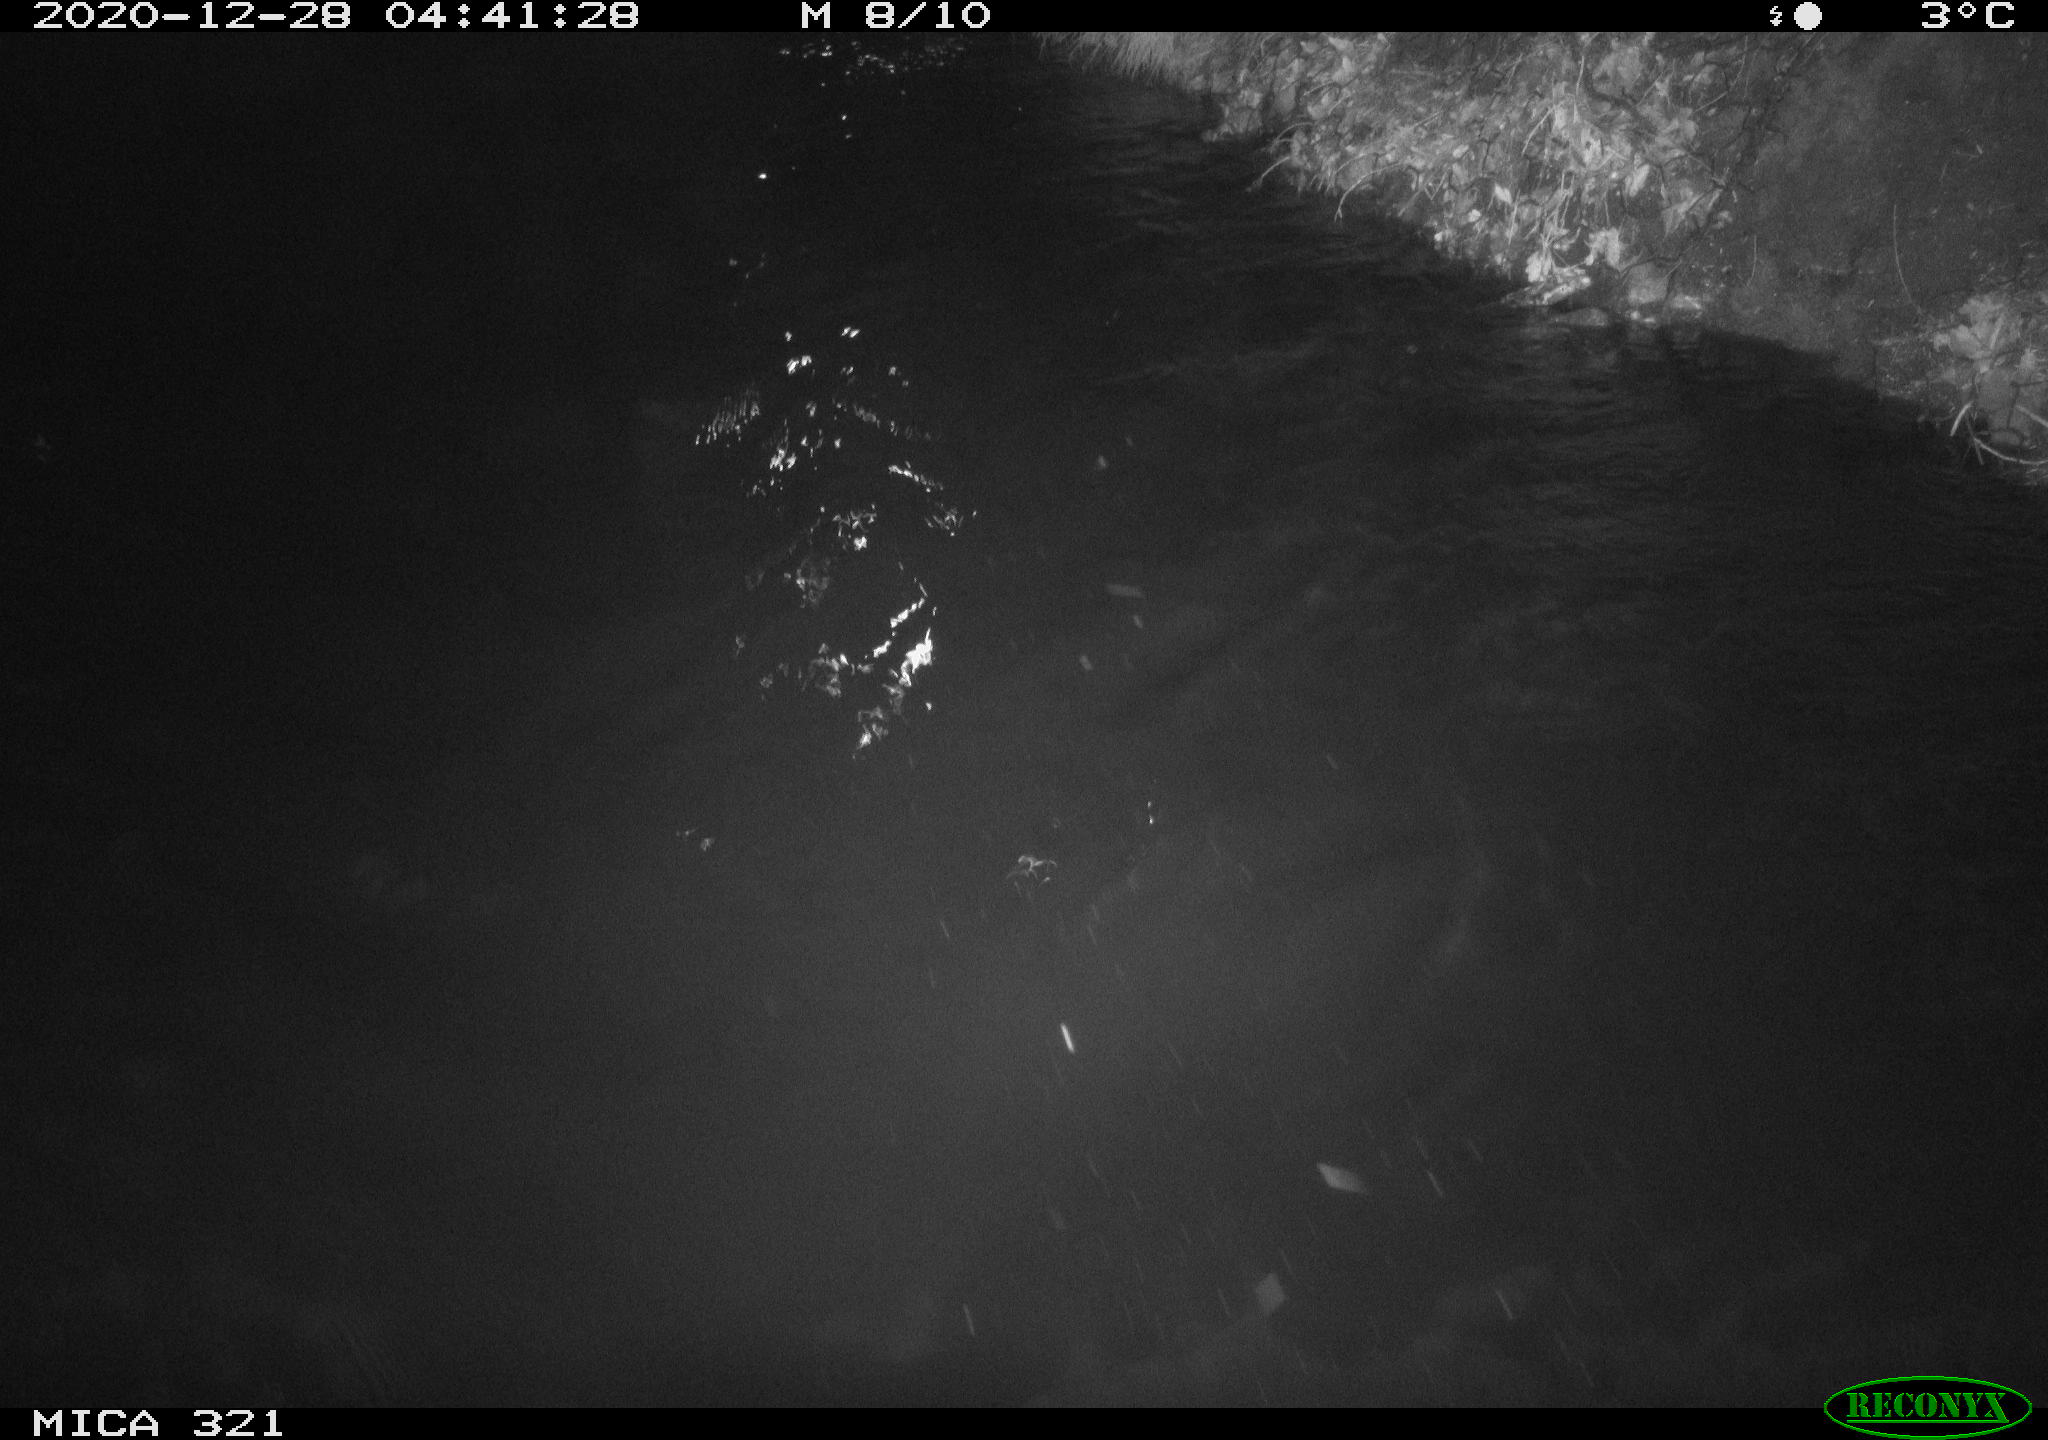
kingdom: Animalia
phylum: Chordata
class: Aves
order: Anseriformes
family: Anatidae
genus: Anas
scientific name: Anas platyrhynchos
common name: Mallard
